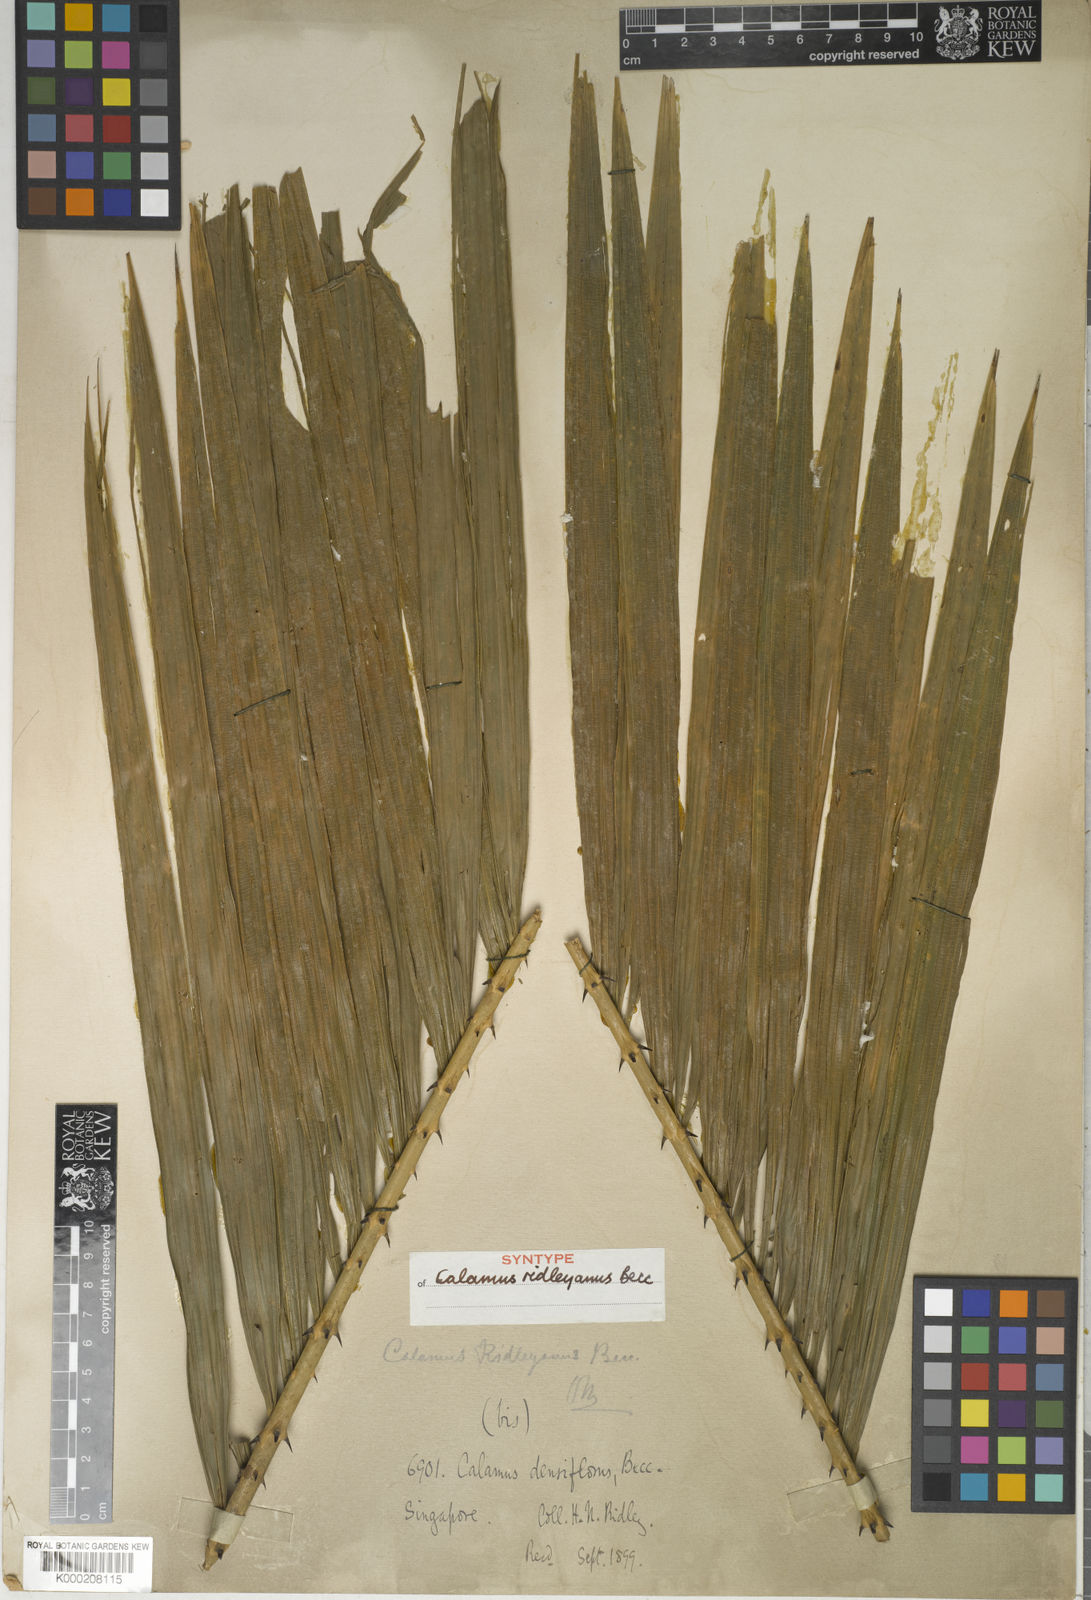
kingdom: Plantae
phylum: Tracheophyta
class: Liliopsida
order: Arecales
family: Arecaceae
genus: Calamus
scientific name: Calamus ridleyanus
